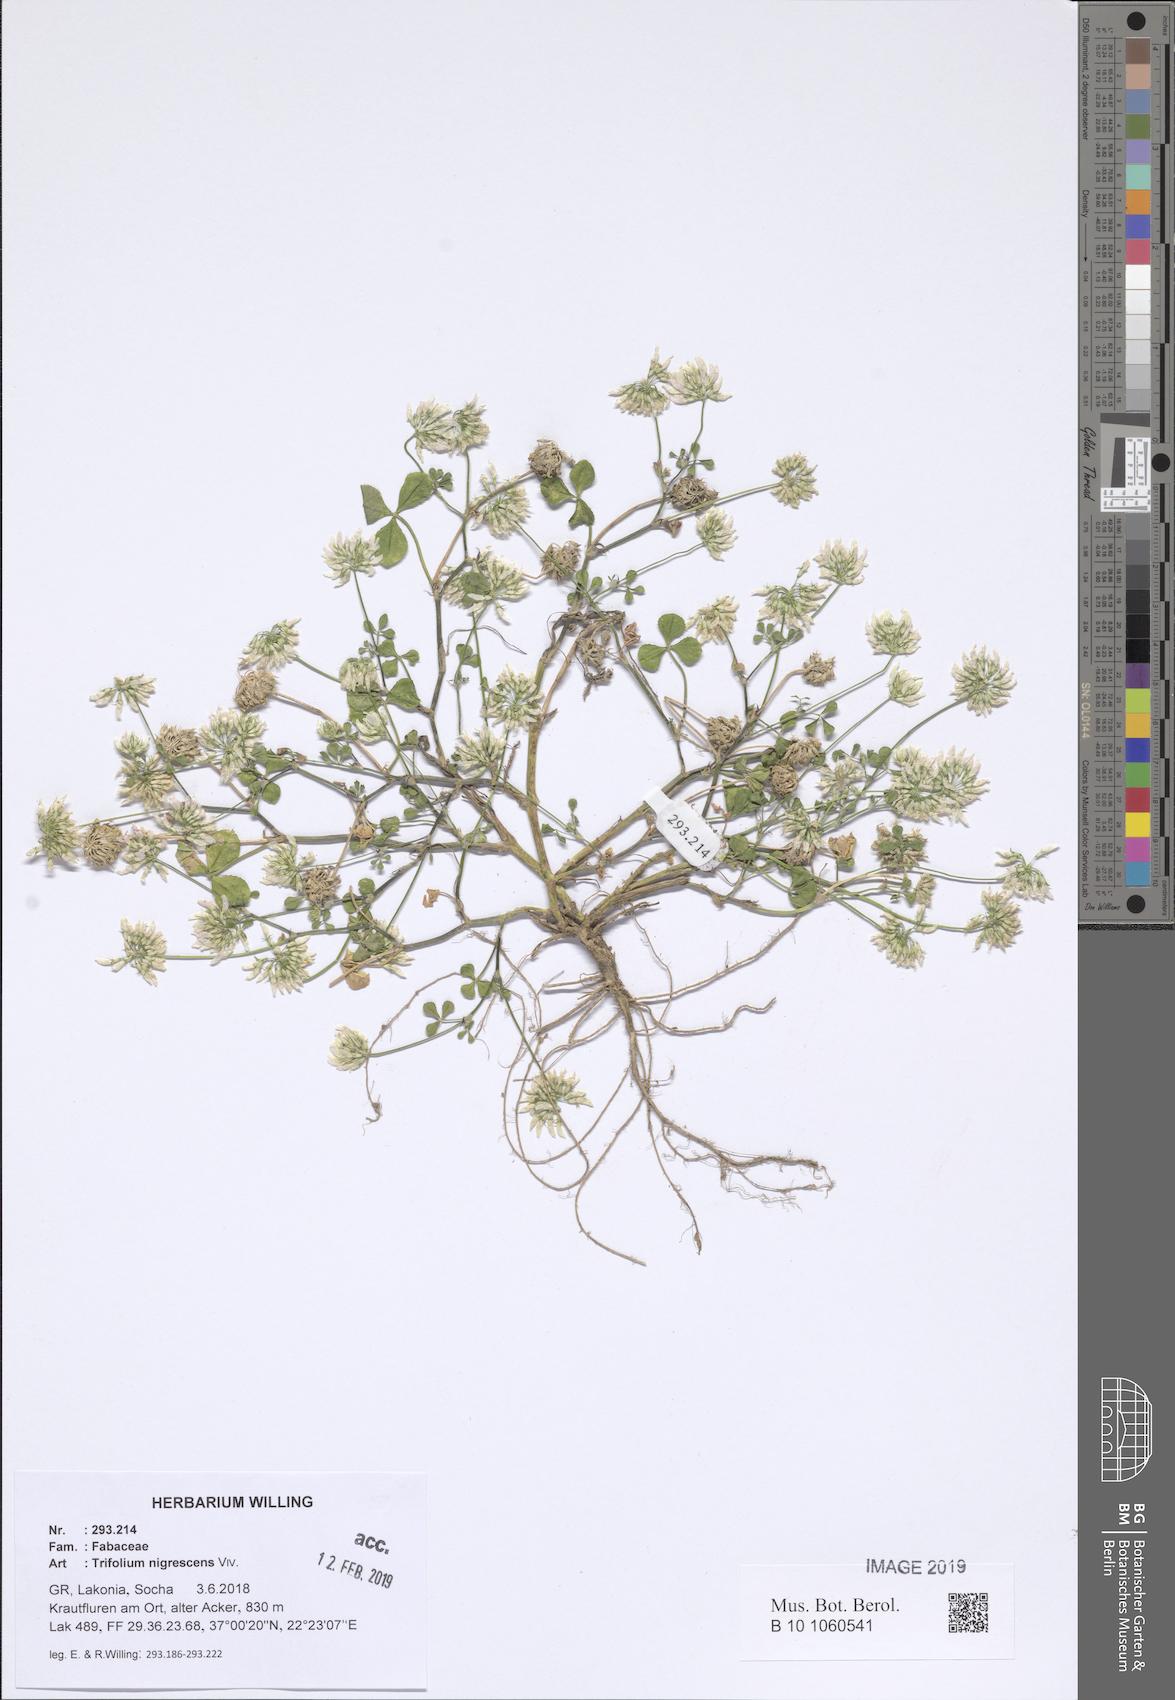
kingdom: Plantae
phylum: Tracheophyta
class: Magnoliopsida
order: Fabales
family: Fabaceae
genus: Trifolium
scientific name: Trifolium nigrescens
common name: Small white clover
